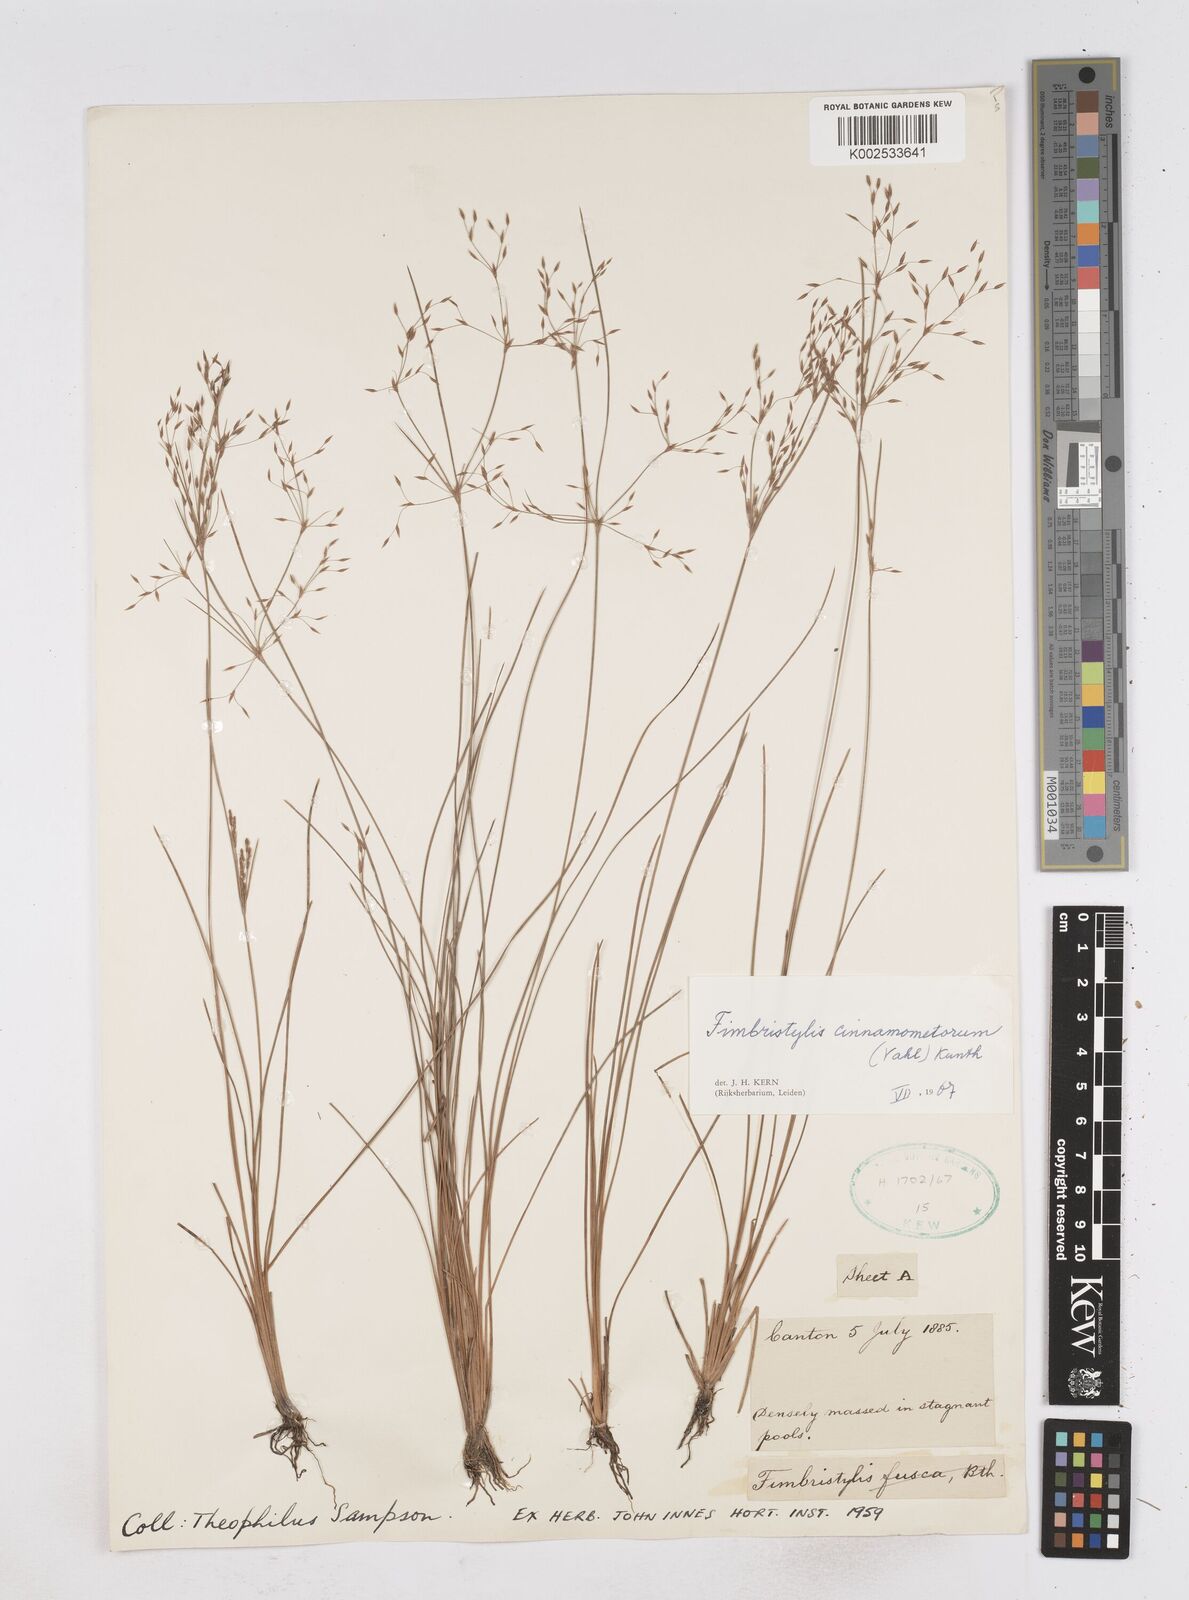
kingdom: Plantae
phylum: Tracheophyta
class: Liliopsida
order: Poales
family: Cyperaceae
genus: Fimbristylis
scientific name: Fimbristylis cinnamometorum
